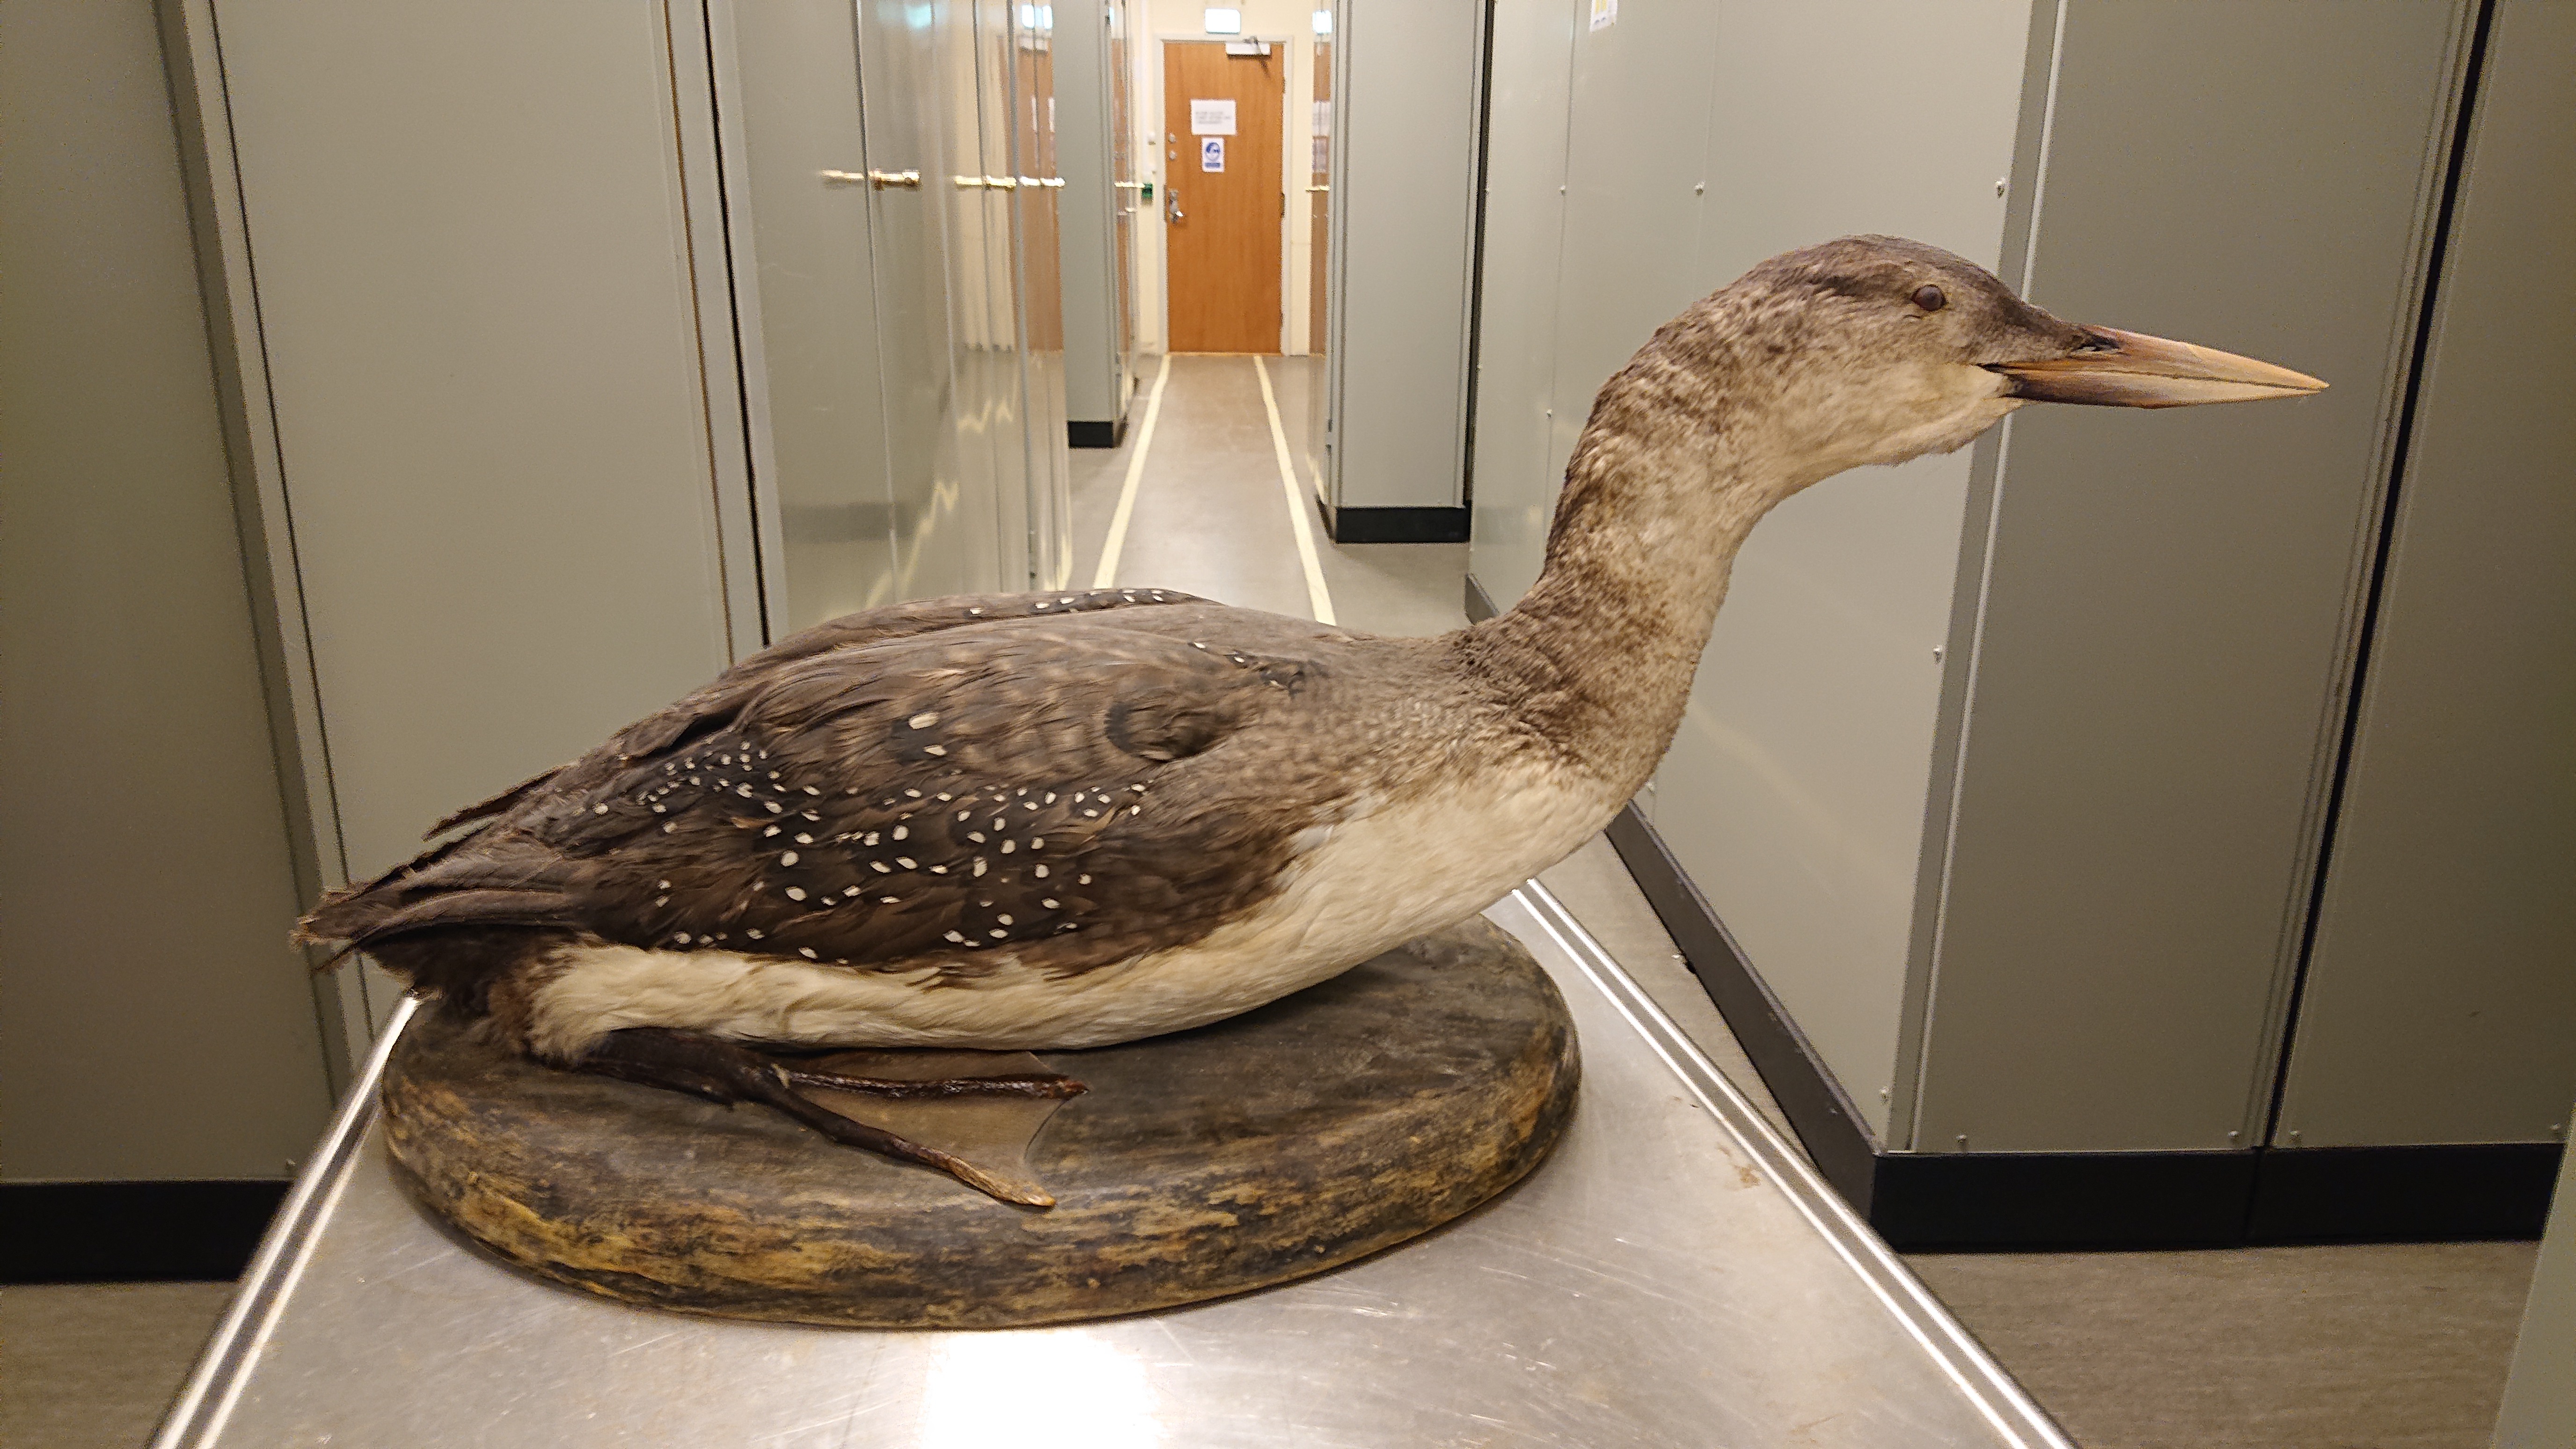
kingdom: Animalia
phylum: Chordata
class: Aves
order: Gaviiformes
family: Gaviidae
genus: Gavia
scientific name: Gavia adamsii
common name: Yellow-billed loon
